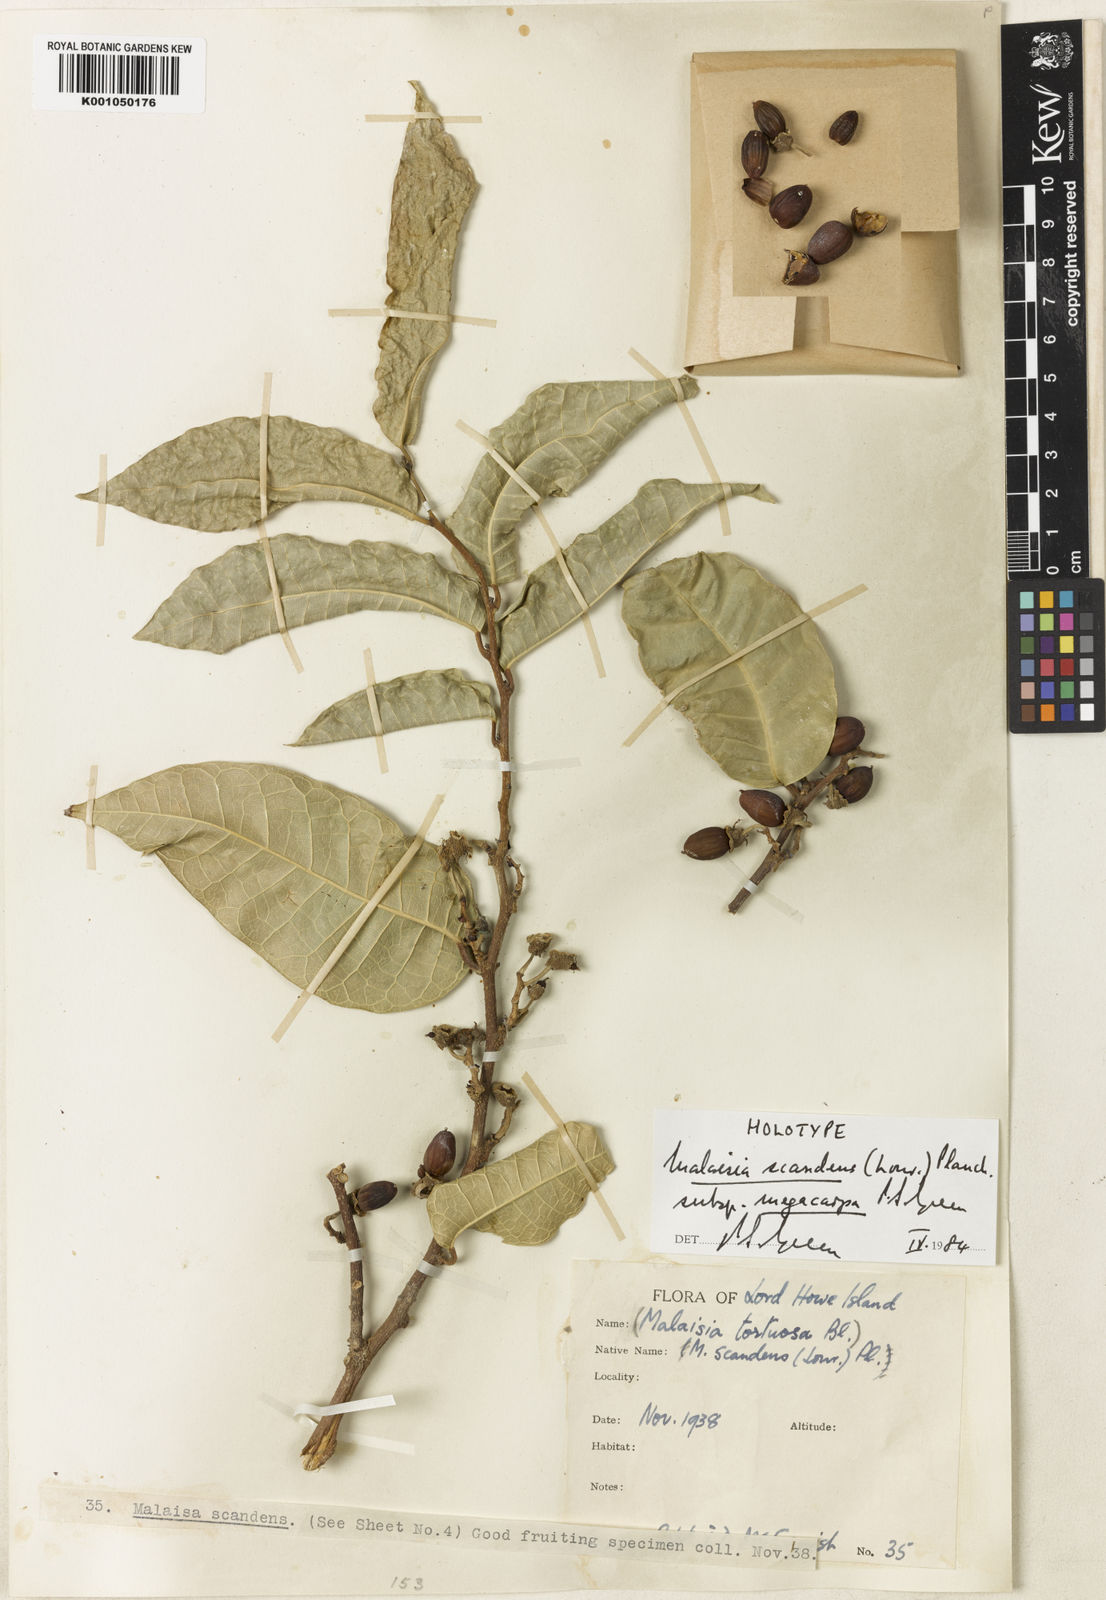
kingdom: Plantae
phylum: Tracheophyta
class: Magnoliopsida
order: Rosales
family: Moraceae
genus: Malaisia
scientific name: Malaisia scandens
